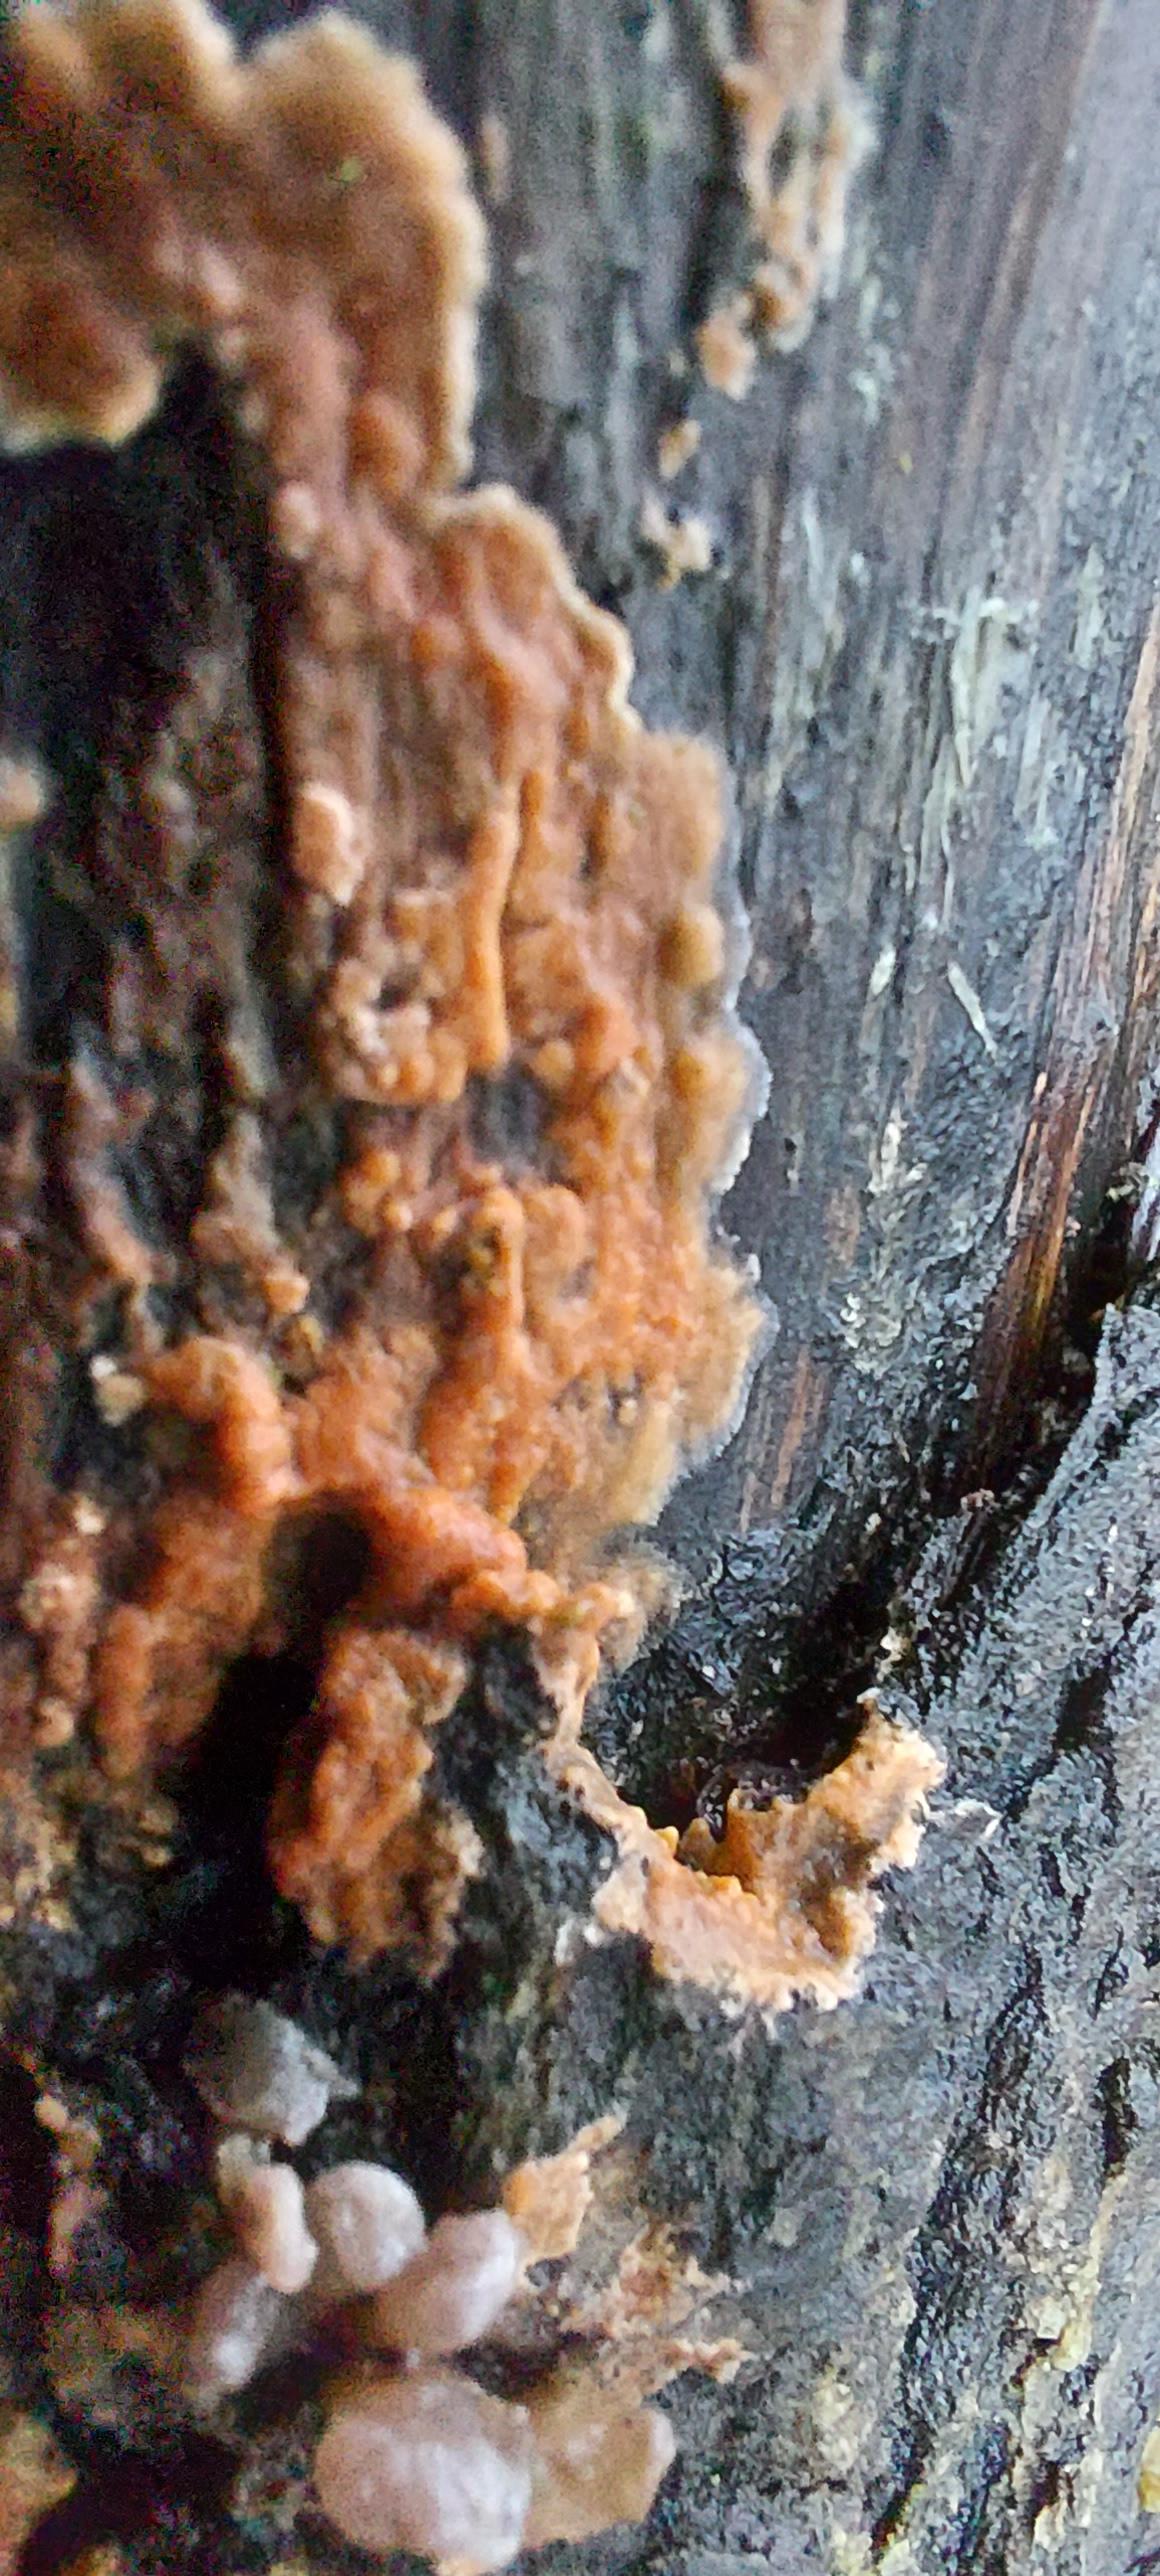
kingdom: Fungi
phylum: Basidiomycota
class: Agaricomycetes
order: Corticiales
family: Corticiaceae
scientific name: Corticiaceae
